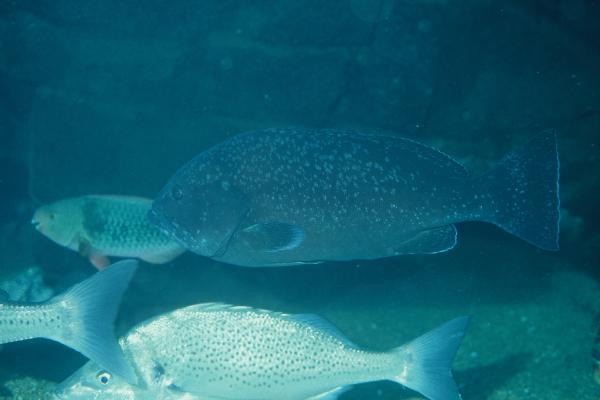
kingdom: Animalia
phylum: Chordata
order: Perciformes
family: Serranidae
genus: Epinephelus
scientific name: Epinephelus coeruleopunctatus
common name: Whitespotted grouper
